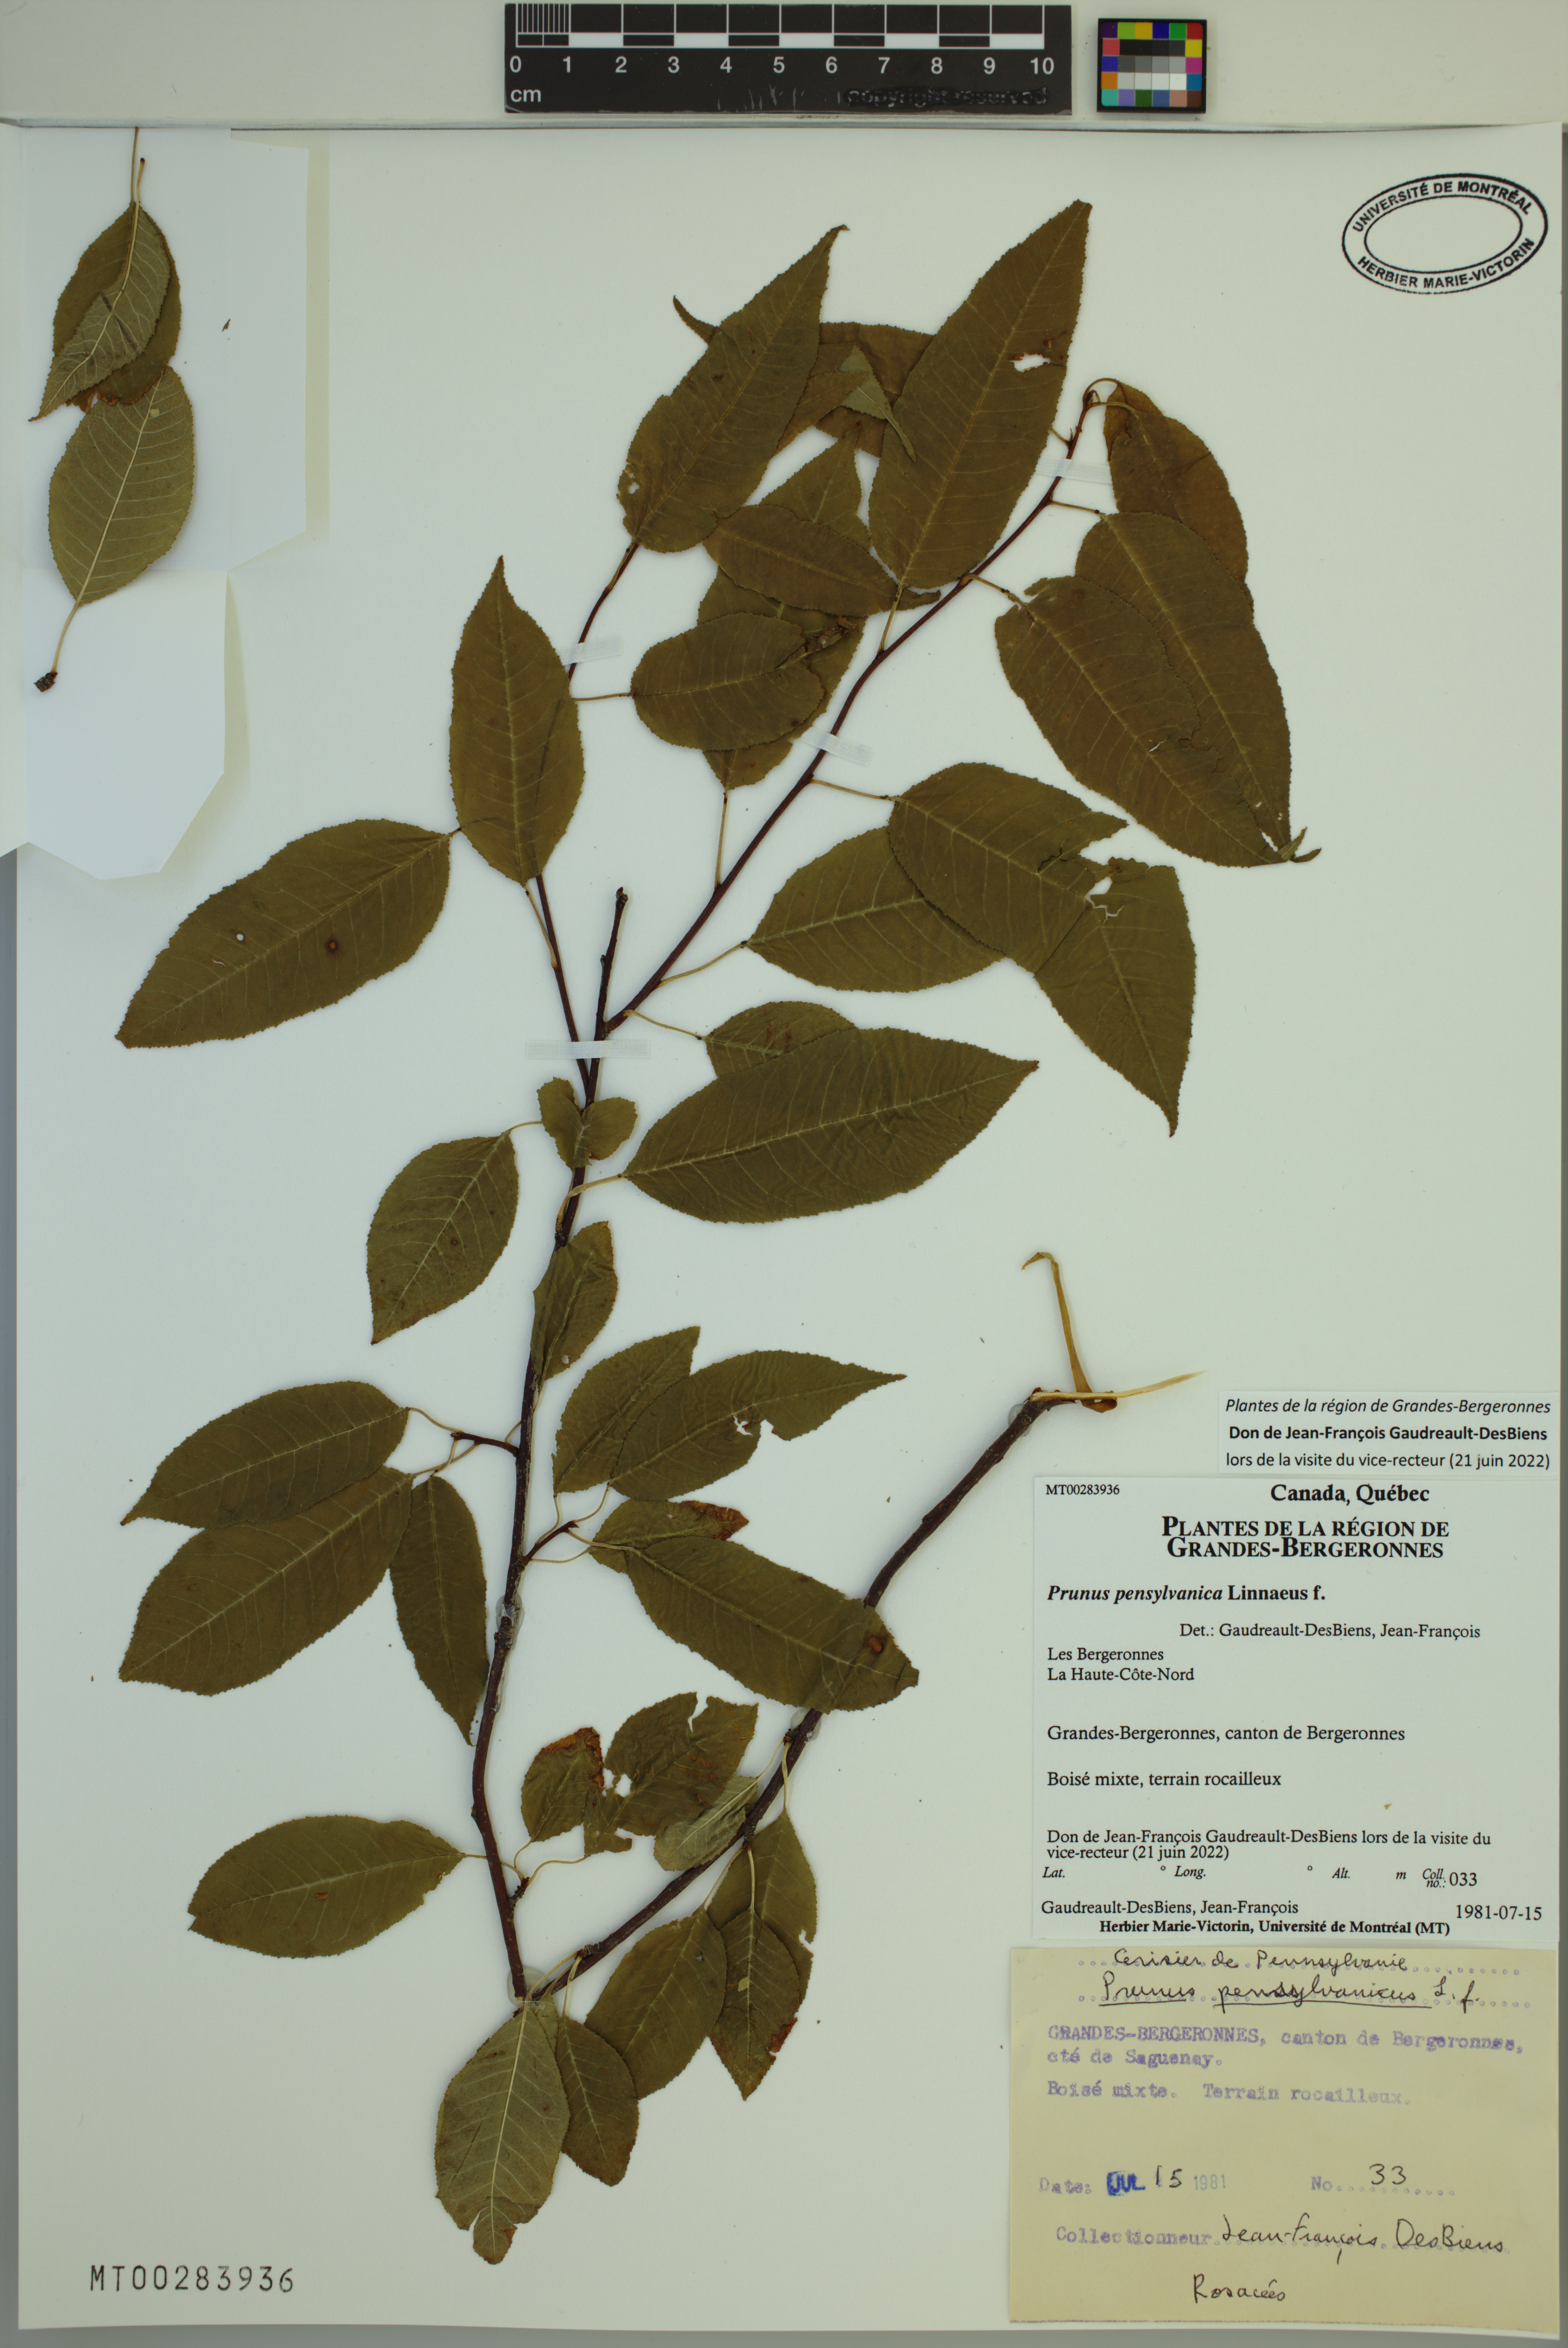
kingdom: Plantae
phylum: Tracheophyta
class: Magnoliopsida
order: Rosales
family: Rosaceae
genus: Prunus
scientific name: Prunus pensylvanica
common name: Pin cherry
